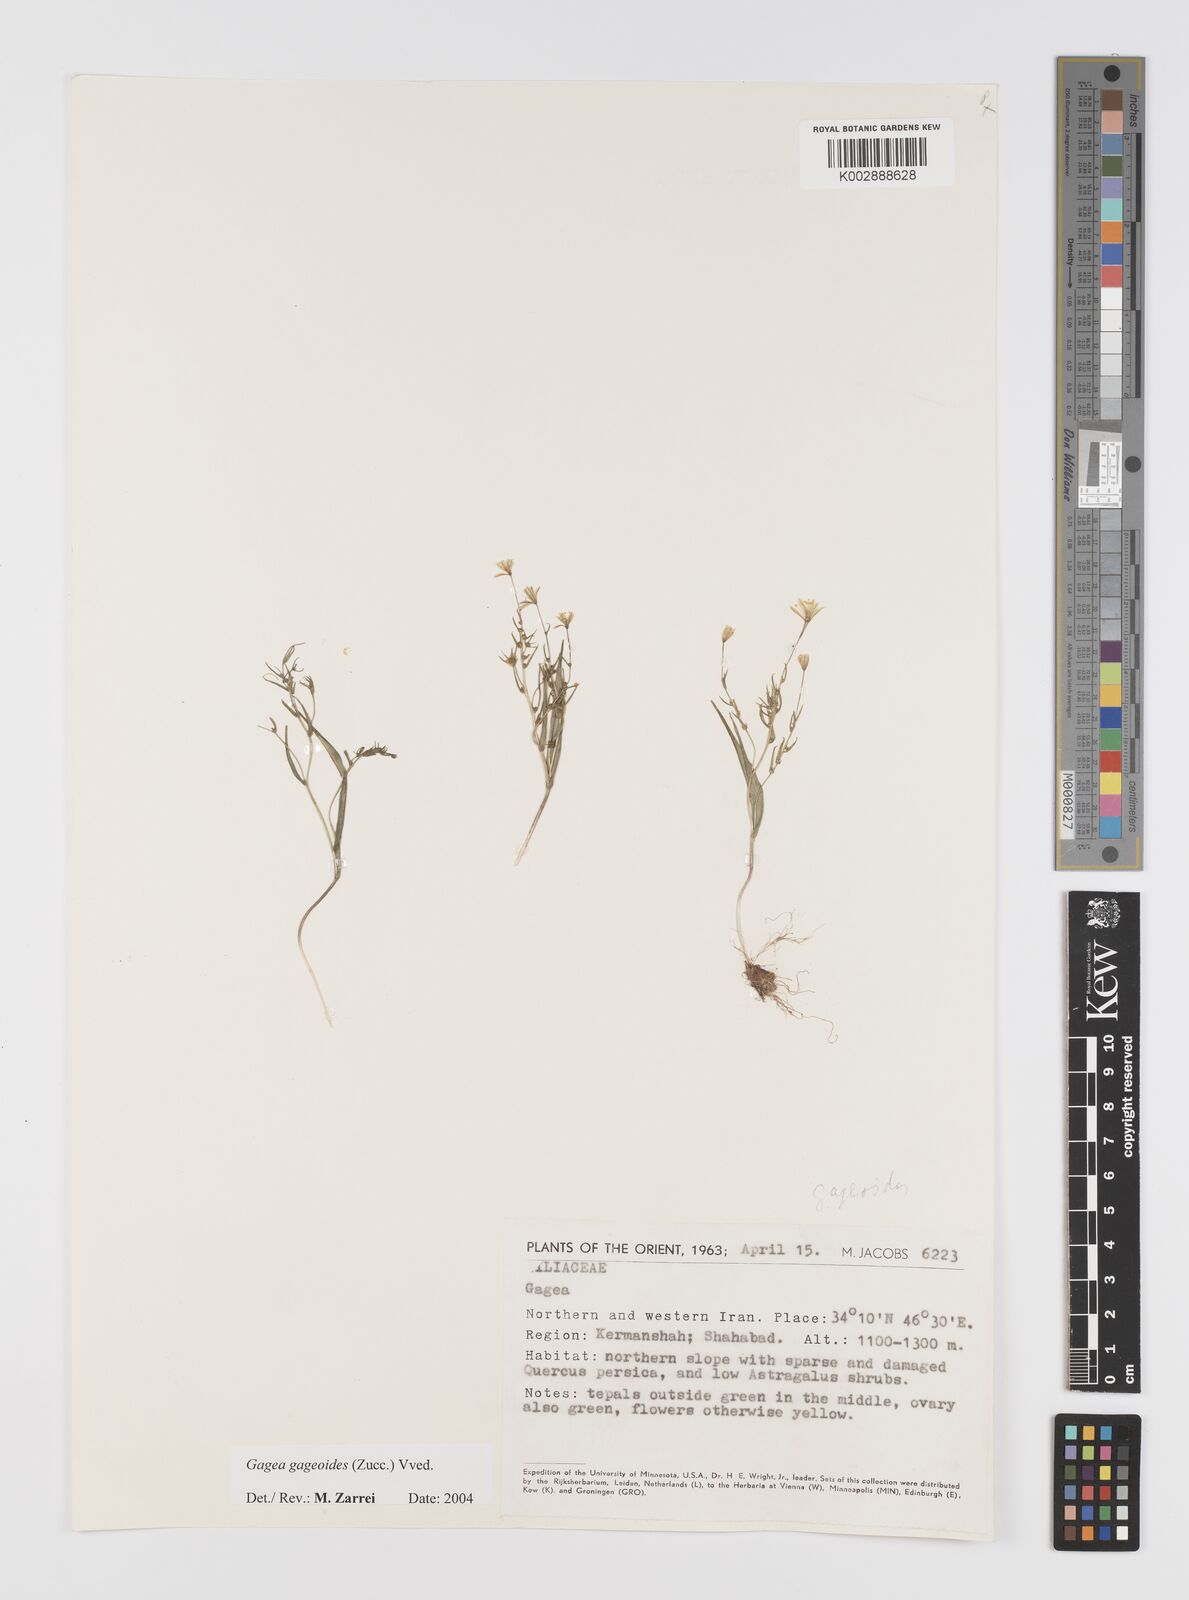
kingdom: Plantae
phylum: Tracheophyta
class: Liliopsida
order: Liliales
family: Liliaceae
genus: Gagea
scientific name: Gagea gageoides
